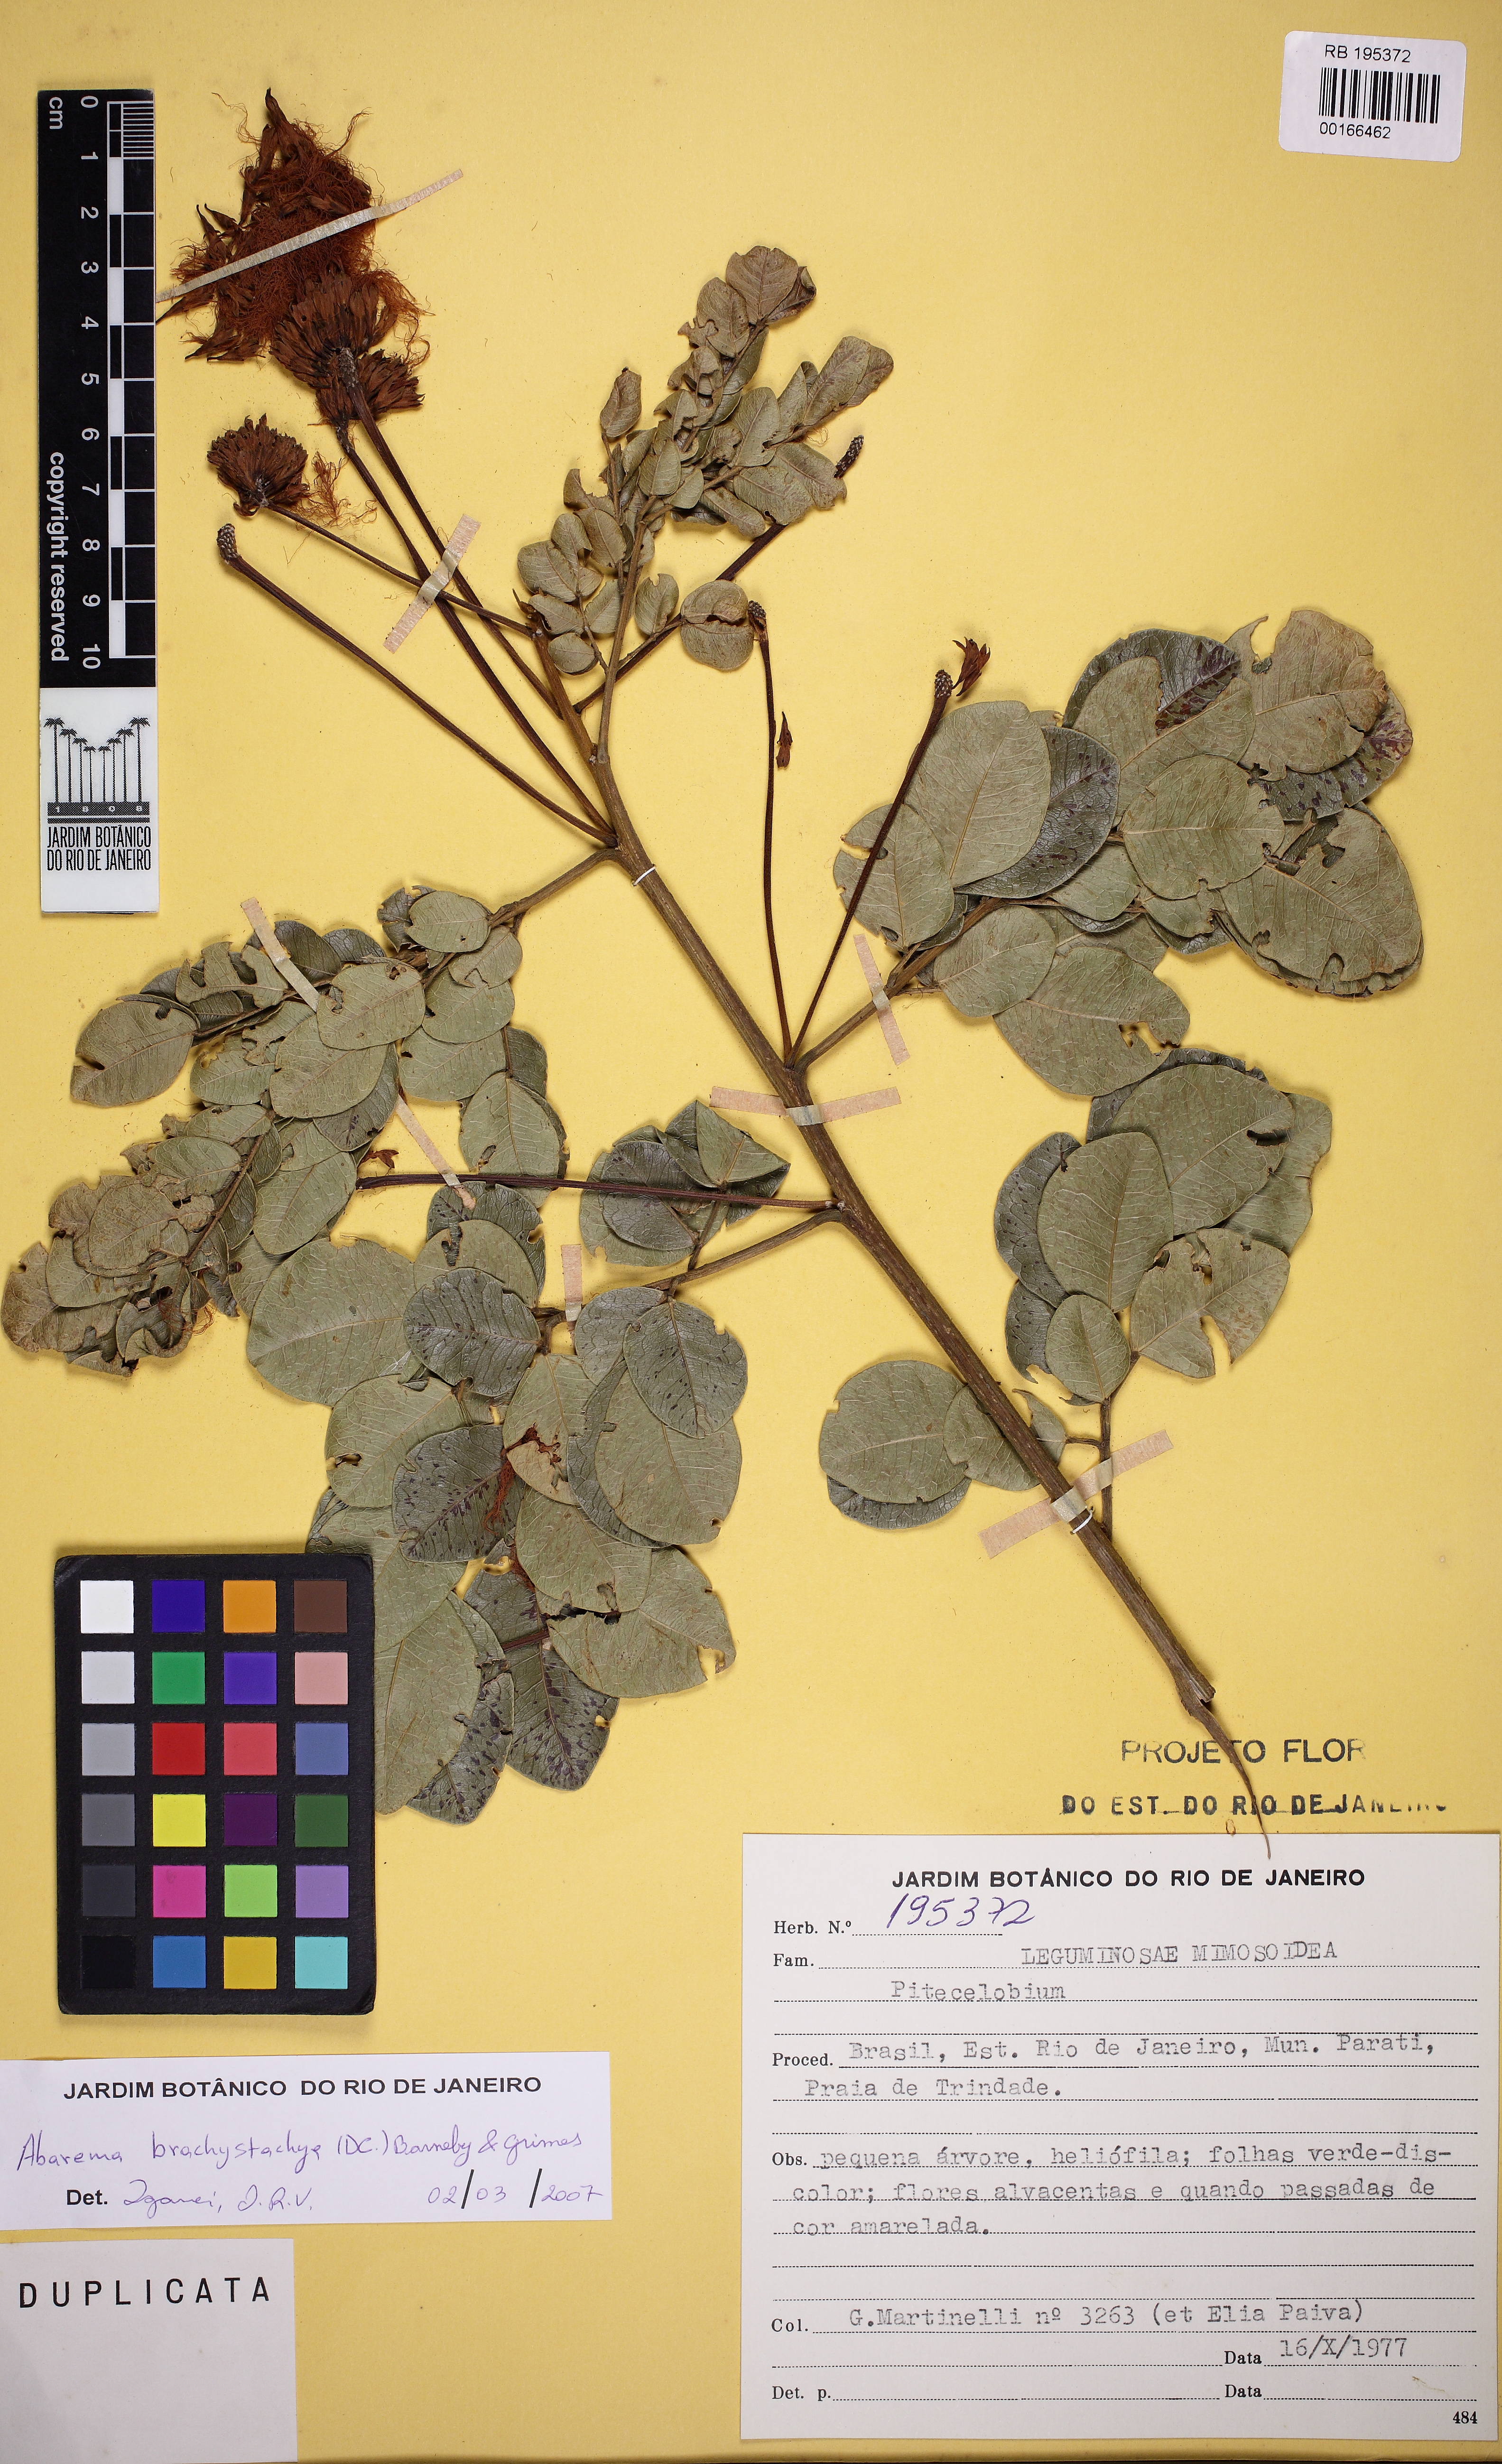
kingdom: Plantae
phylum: Tracheophyta
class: Magnoliopsida
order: Fabales
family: Fabaceae
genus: Jupunba
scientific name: Jupunba brachystachya
